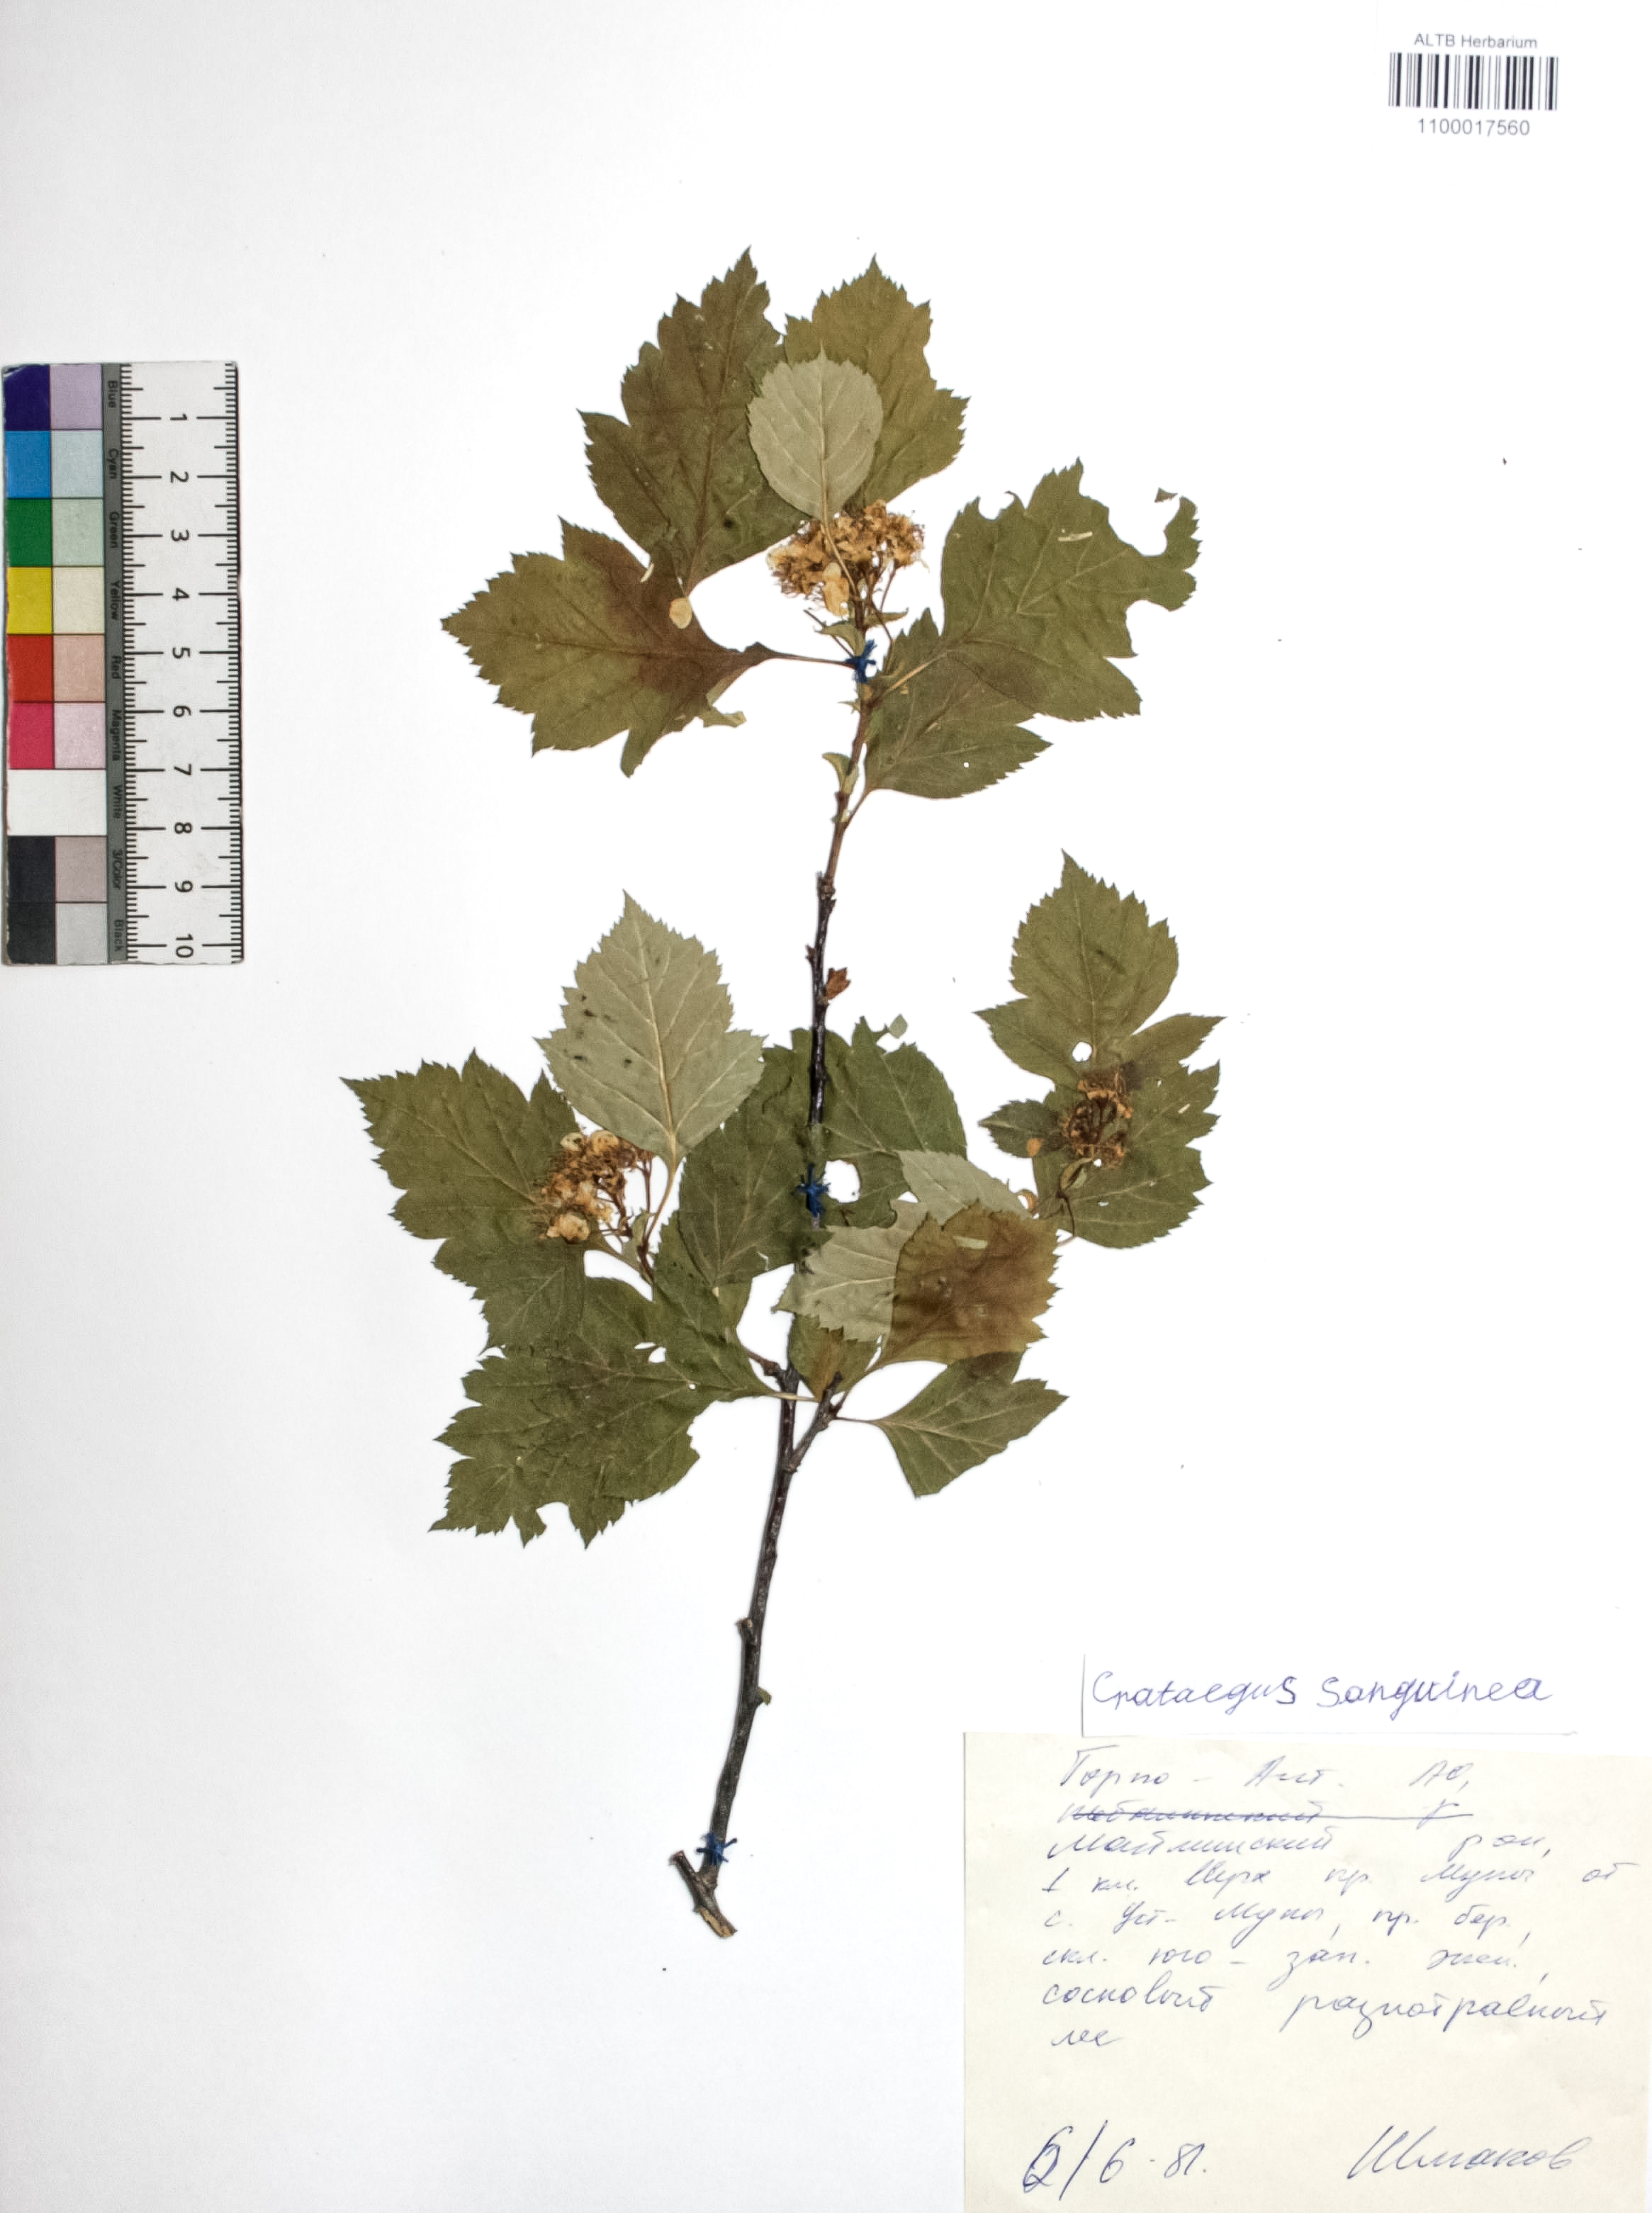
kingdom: Plantae
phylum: Tracheophyta
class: Magnoliopsida
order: Rosales
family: Rosaceae
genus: Crataegus
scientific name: Crataegus sanguinea
